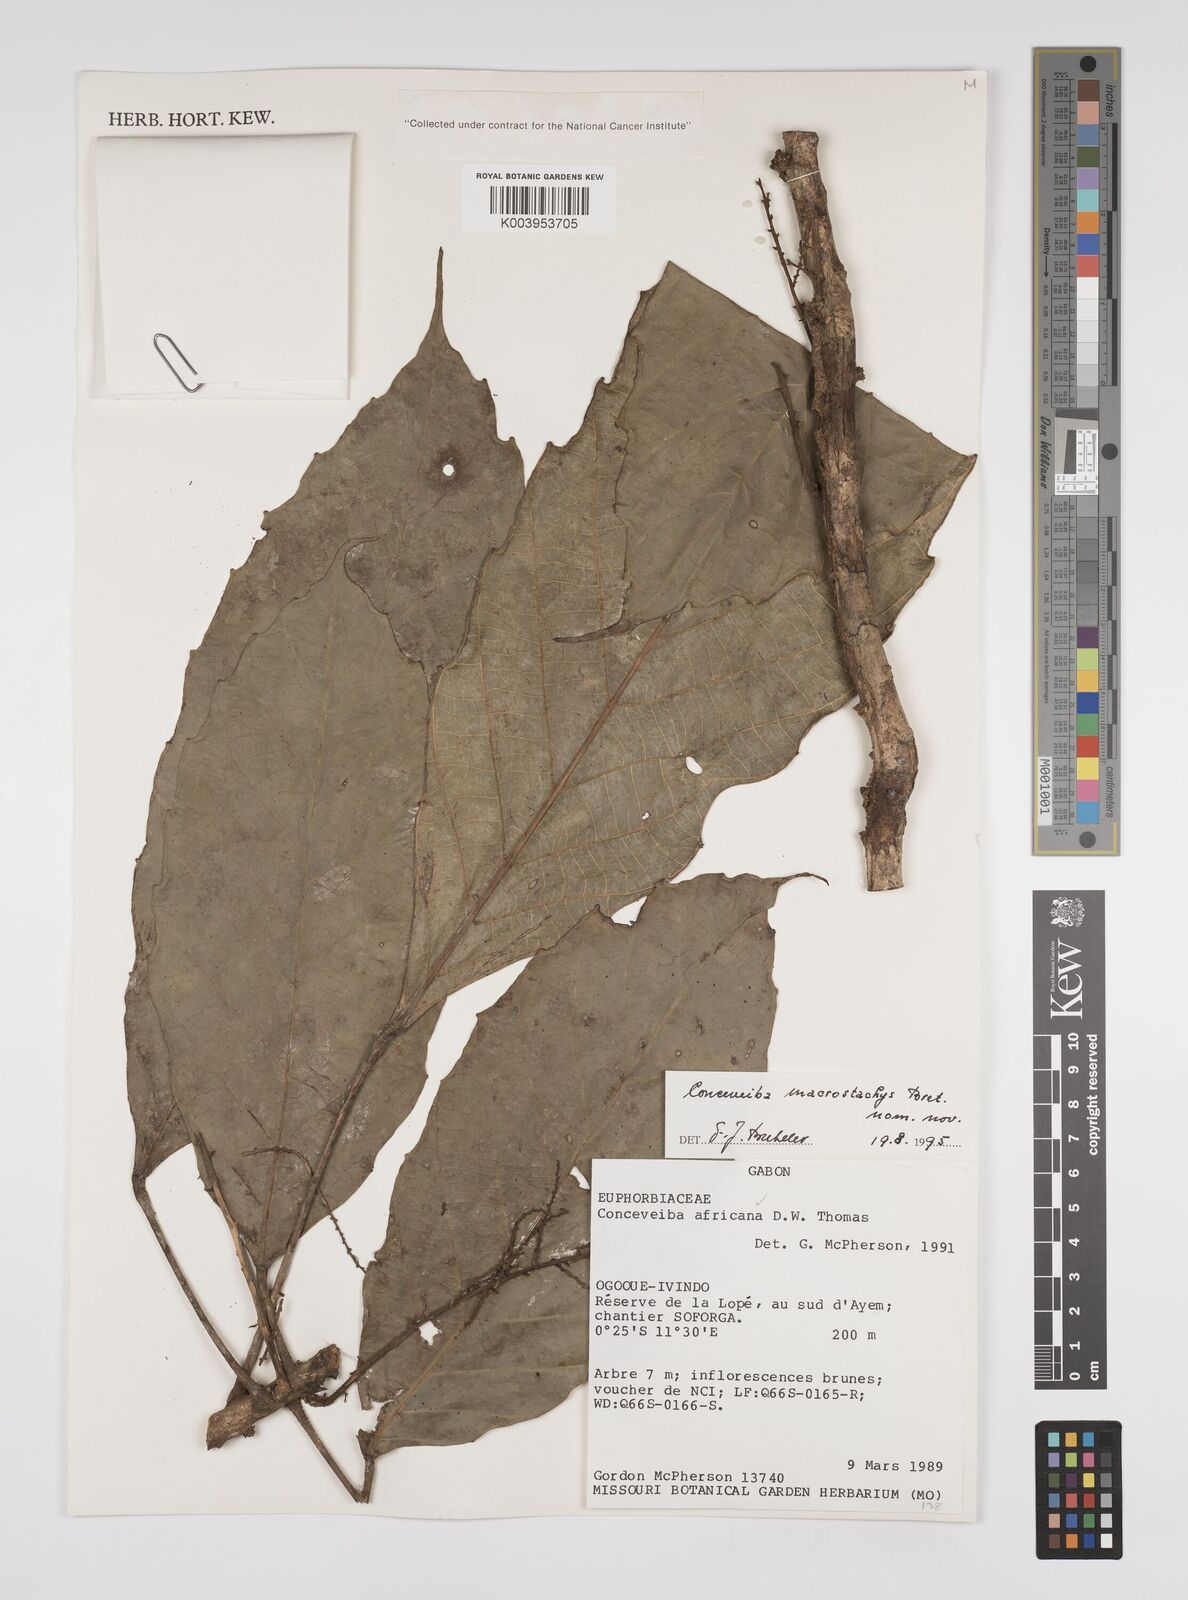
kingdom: Plantae
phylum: Tracheophyta
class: Magnoliopsida
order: Malpighiales
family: Euphorbiaceae
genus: Aubletiana
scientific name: Aubletiana macrostachys
